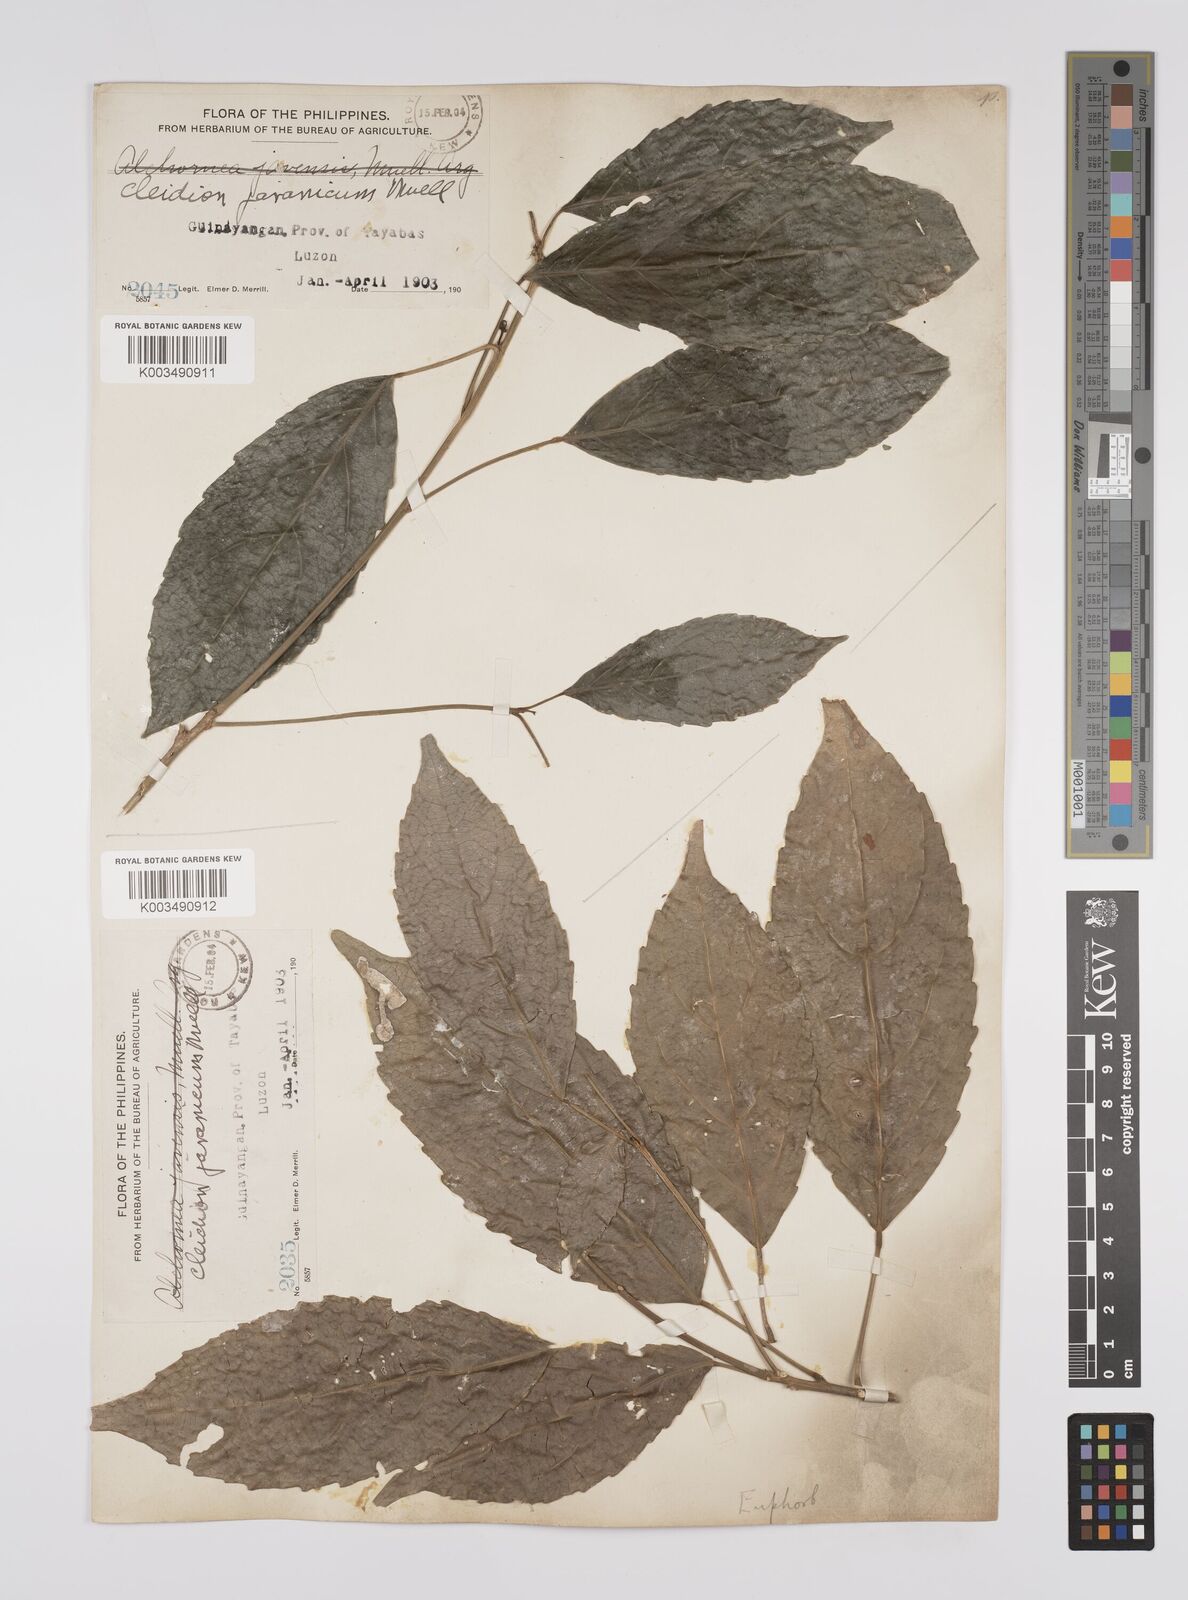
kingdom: Plantae
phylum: Tracheophyta
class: Magnoliopsida
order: Malpighiales
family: Euphorbiaceae
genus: Cleidion
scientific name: Cleidion javanicum
